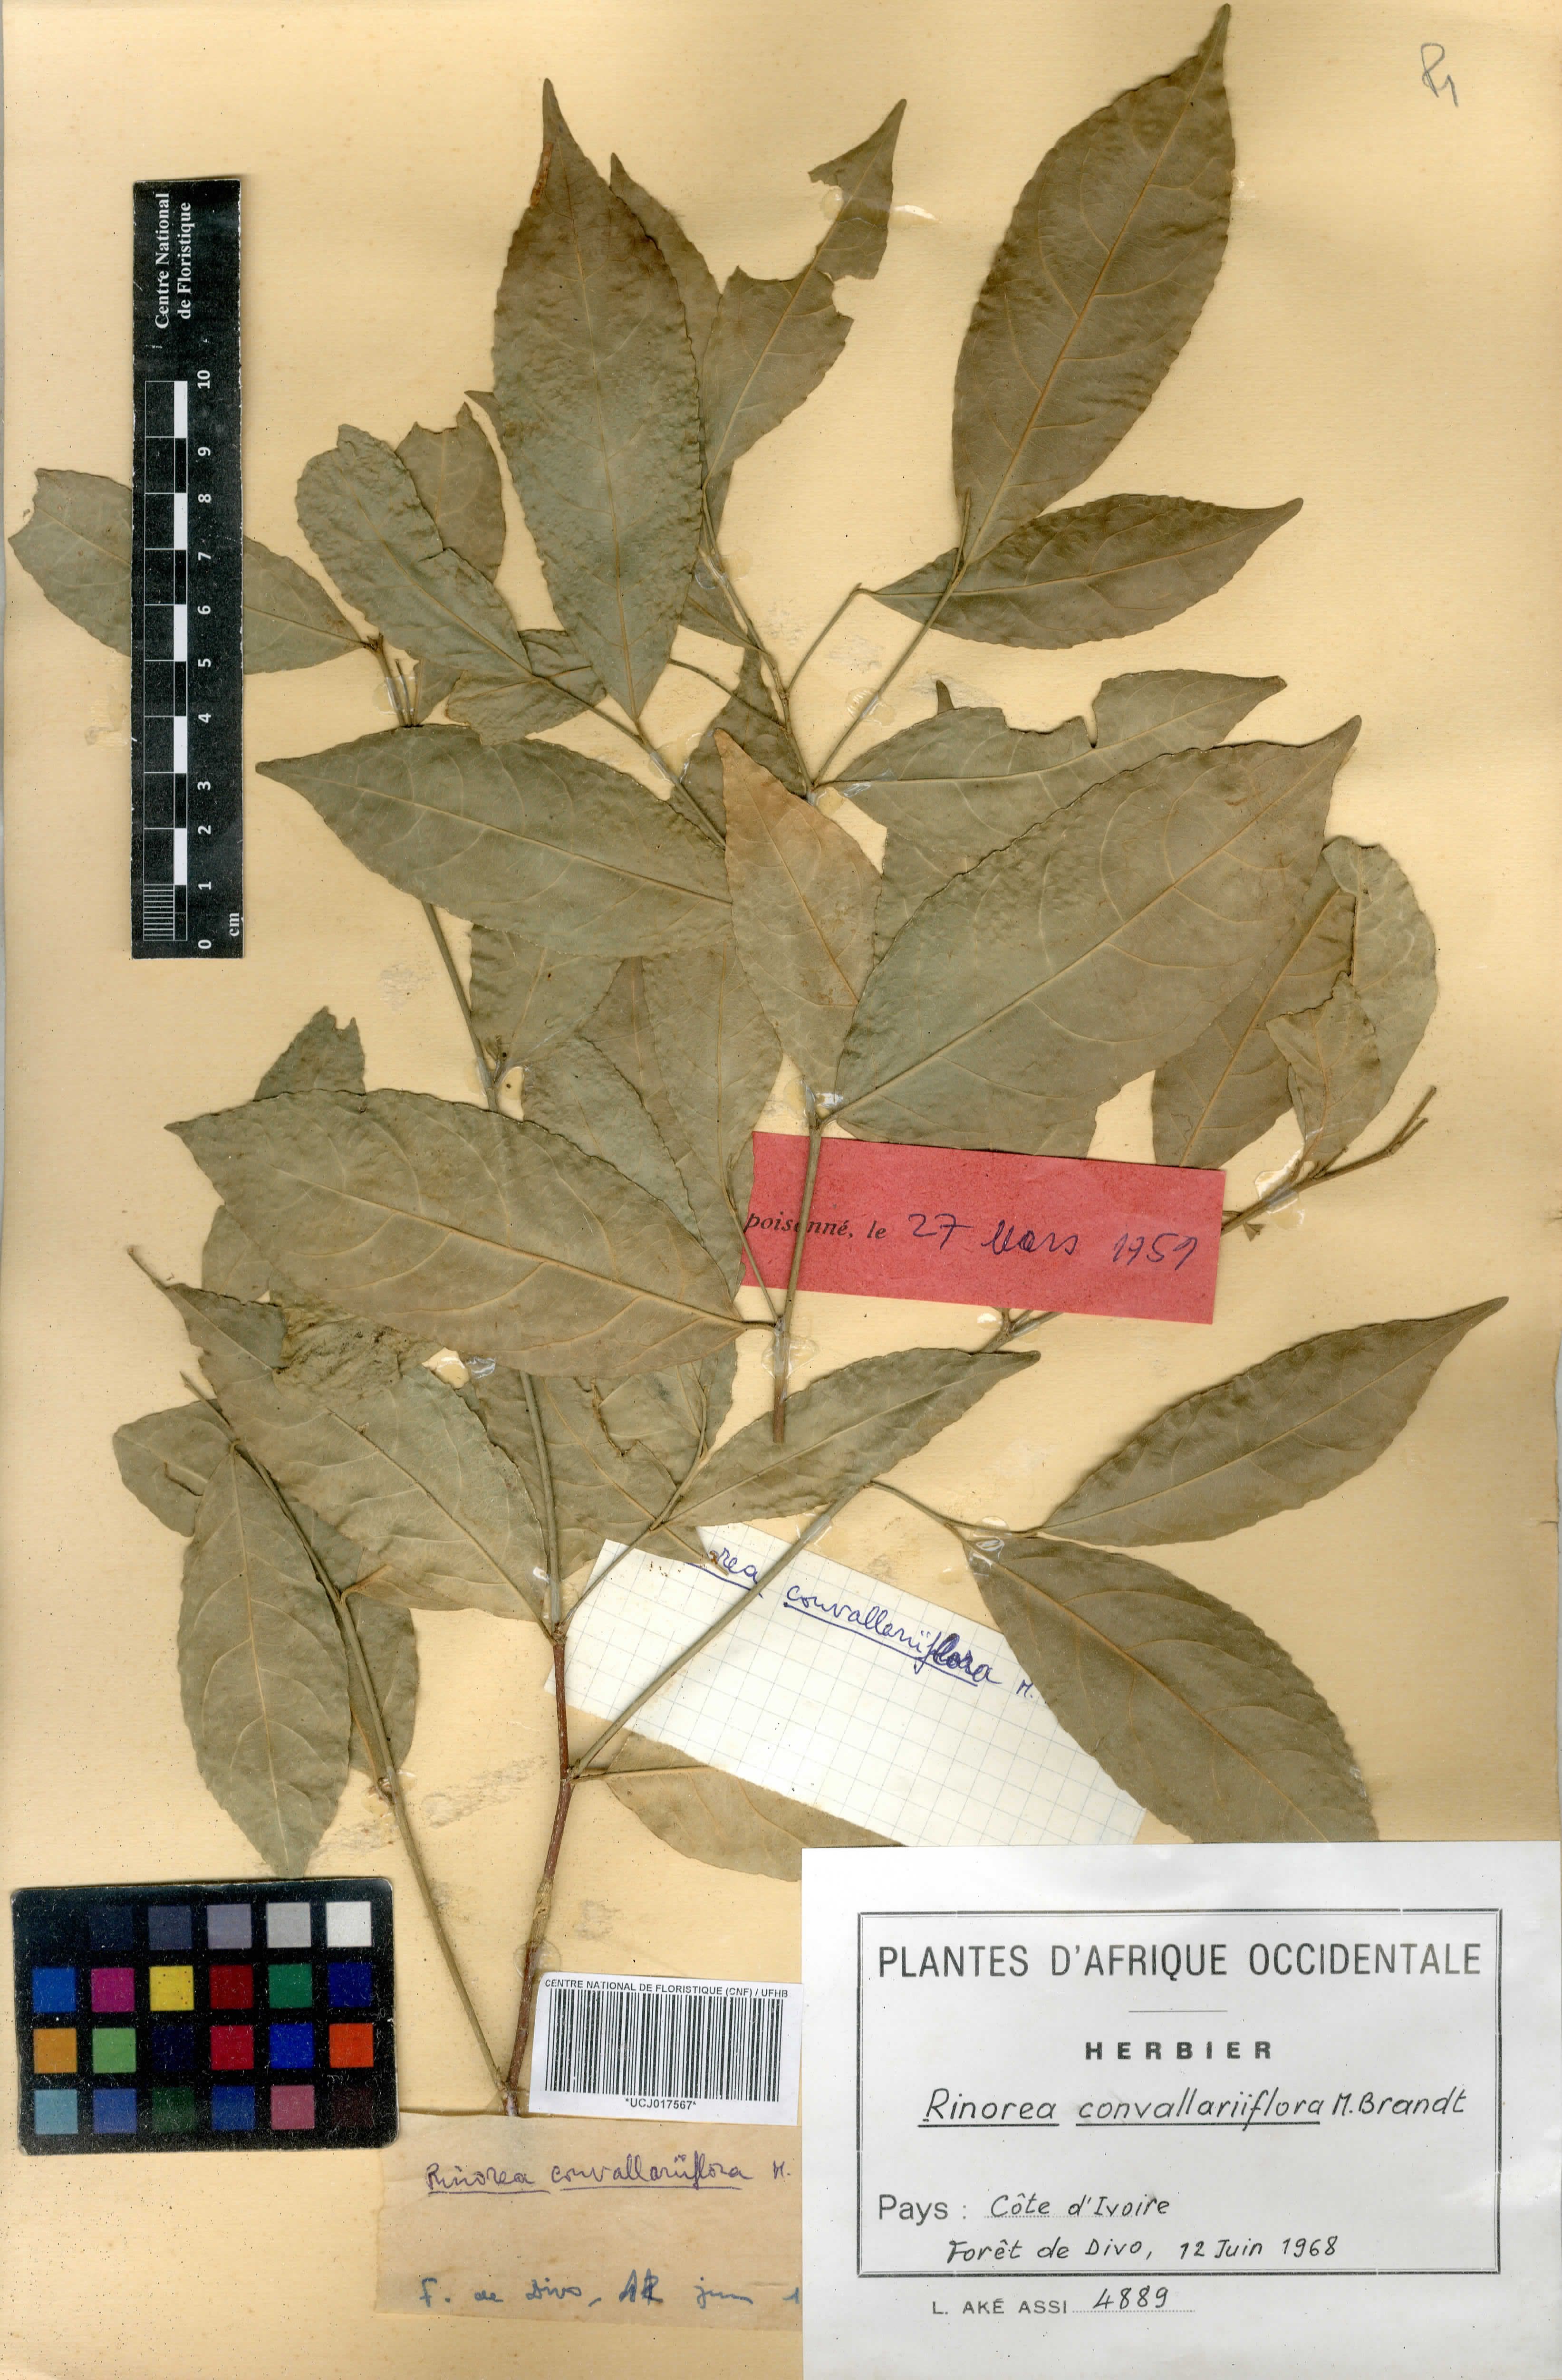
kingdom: Plantae
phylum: Tracheophyta
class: Magnoliopsida
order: Malpighiales
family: Violaceae
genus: Rinorea
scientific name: Rinorea convallarioides
